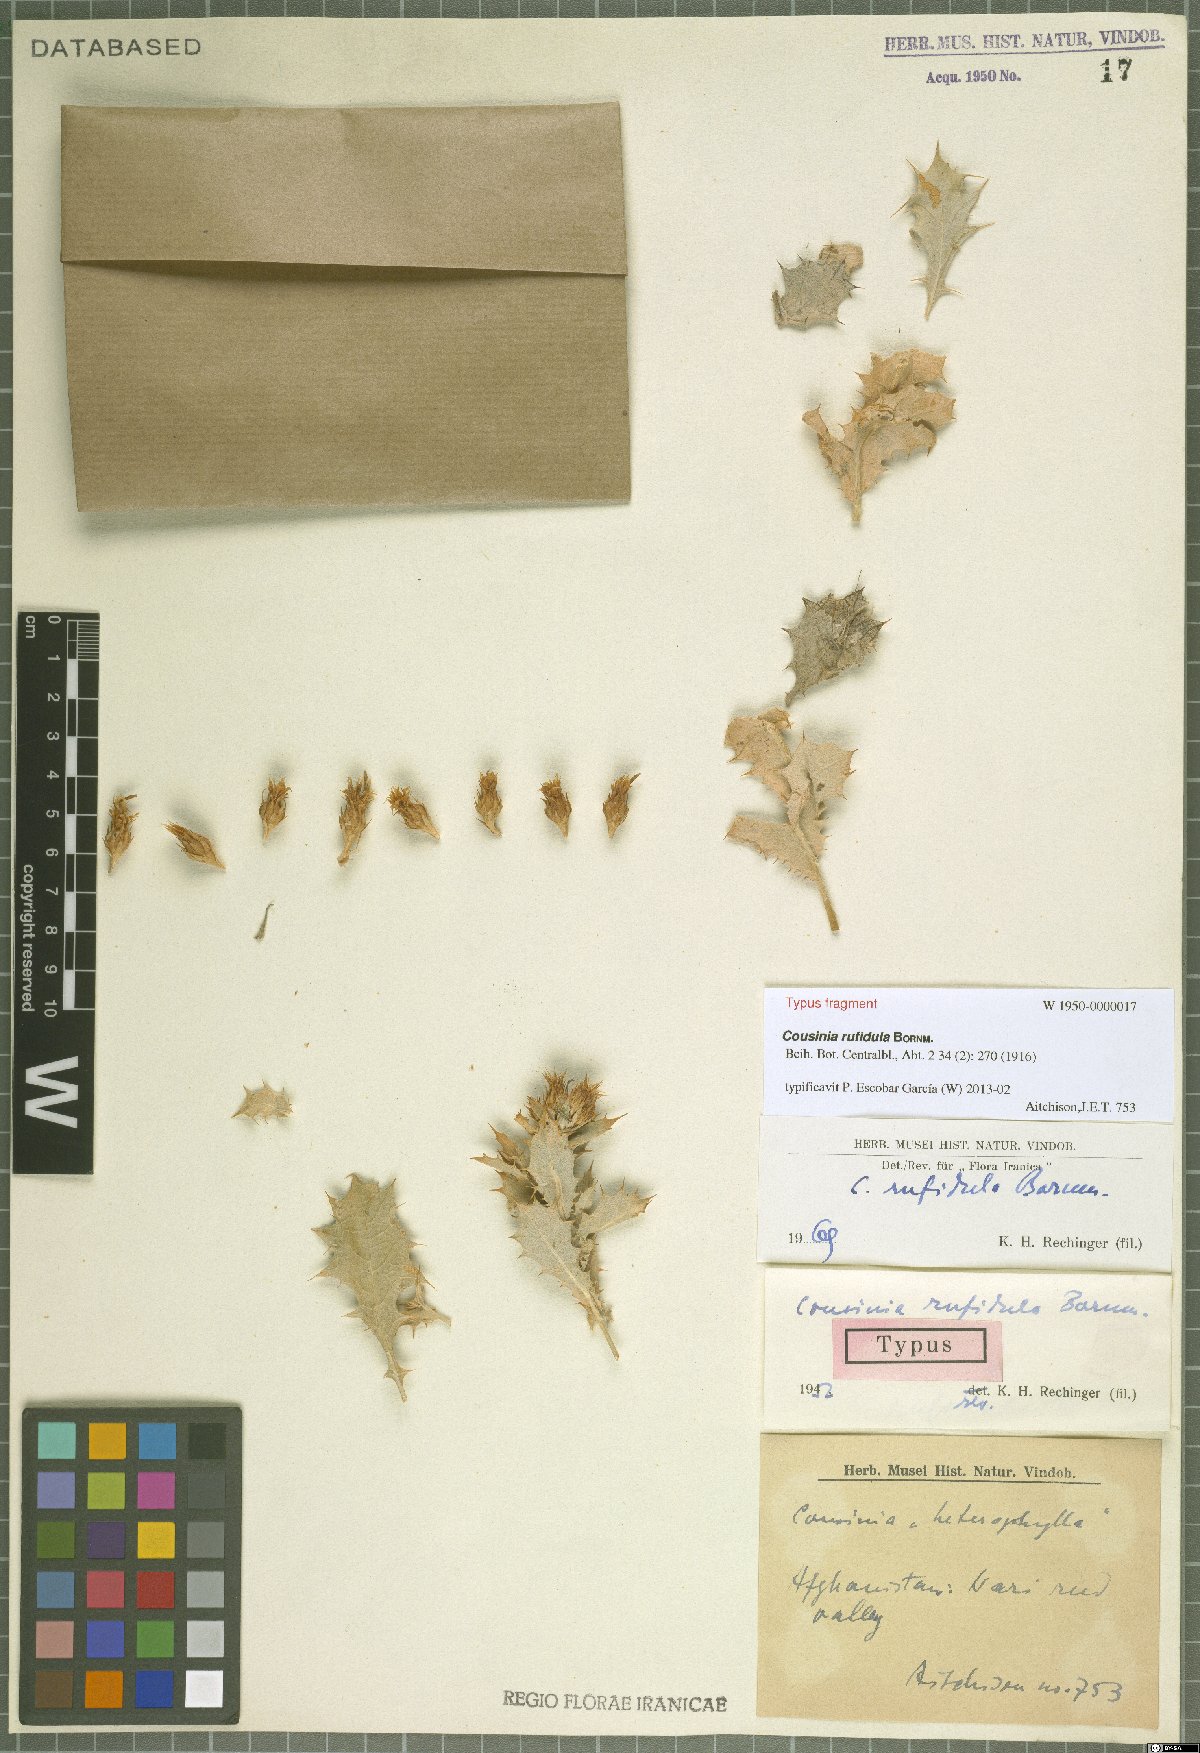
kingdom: Plantae
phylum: Tracheophyta
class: Magnoliopsida
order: Asterales
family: Asteraceae
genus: Cousinia
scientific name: Cousinia rufidula
